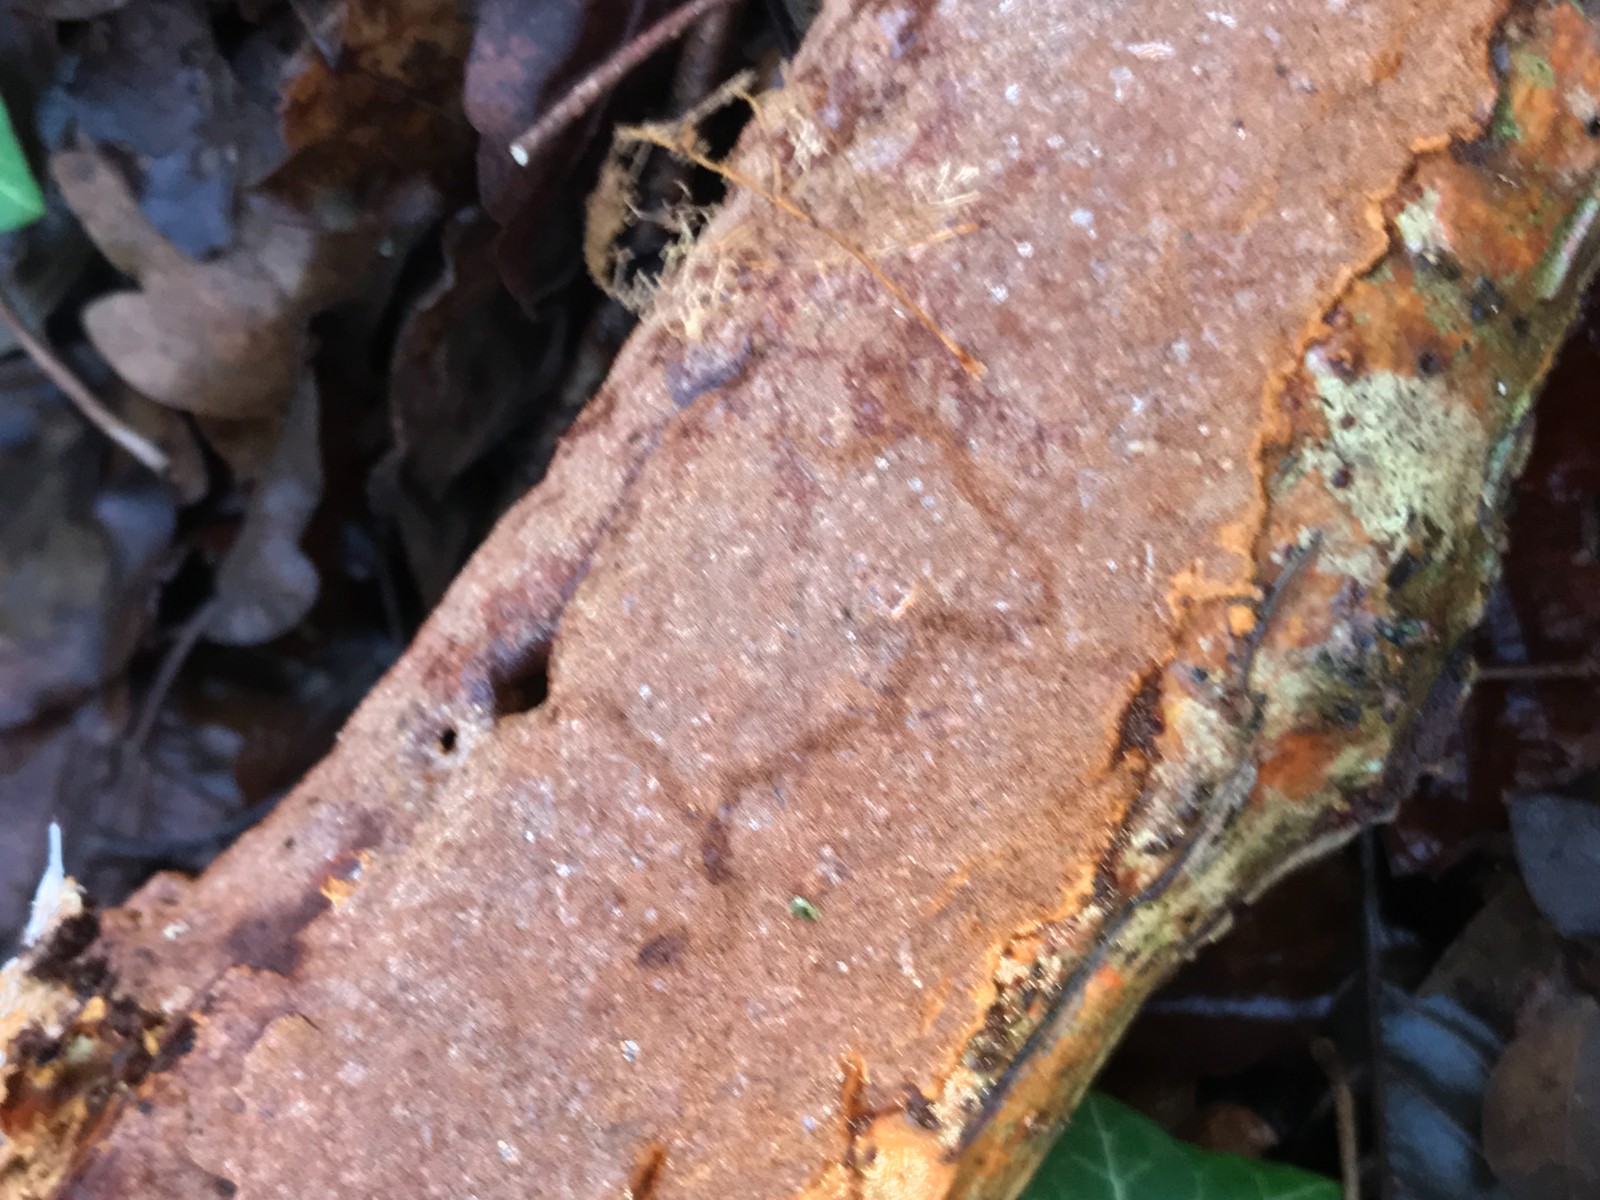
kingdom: Fungi
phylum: Basidiomycota
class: Agaricomycetes
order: Hymenochaetales
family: Hymenochaetaceae
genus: Fuscoporia
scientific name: Fuscoporia ferrea
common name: skorpe-ildporesvamp
